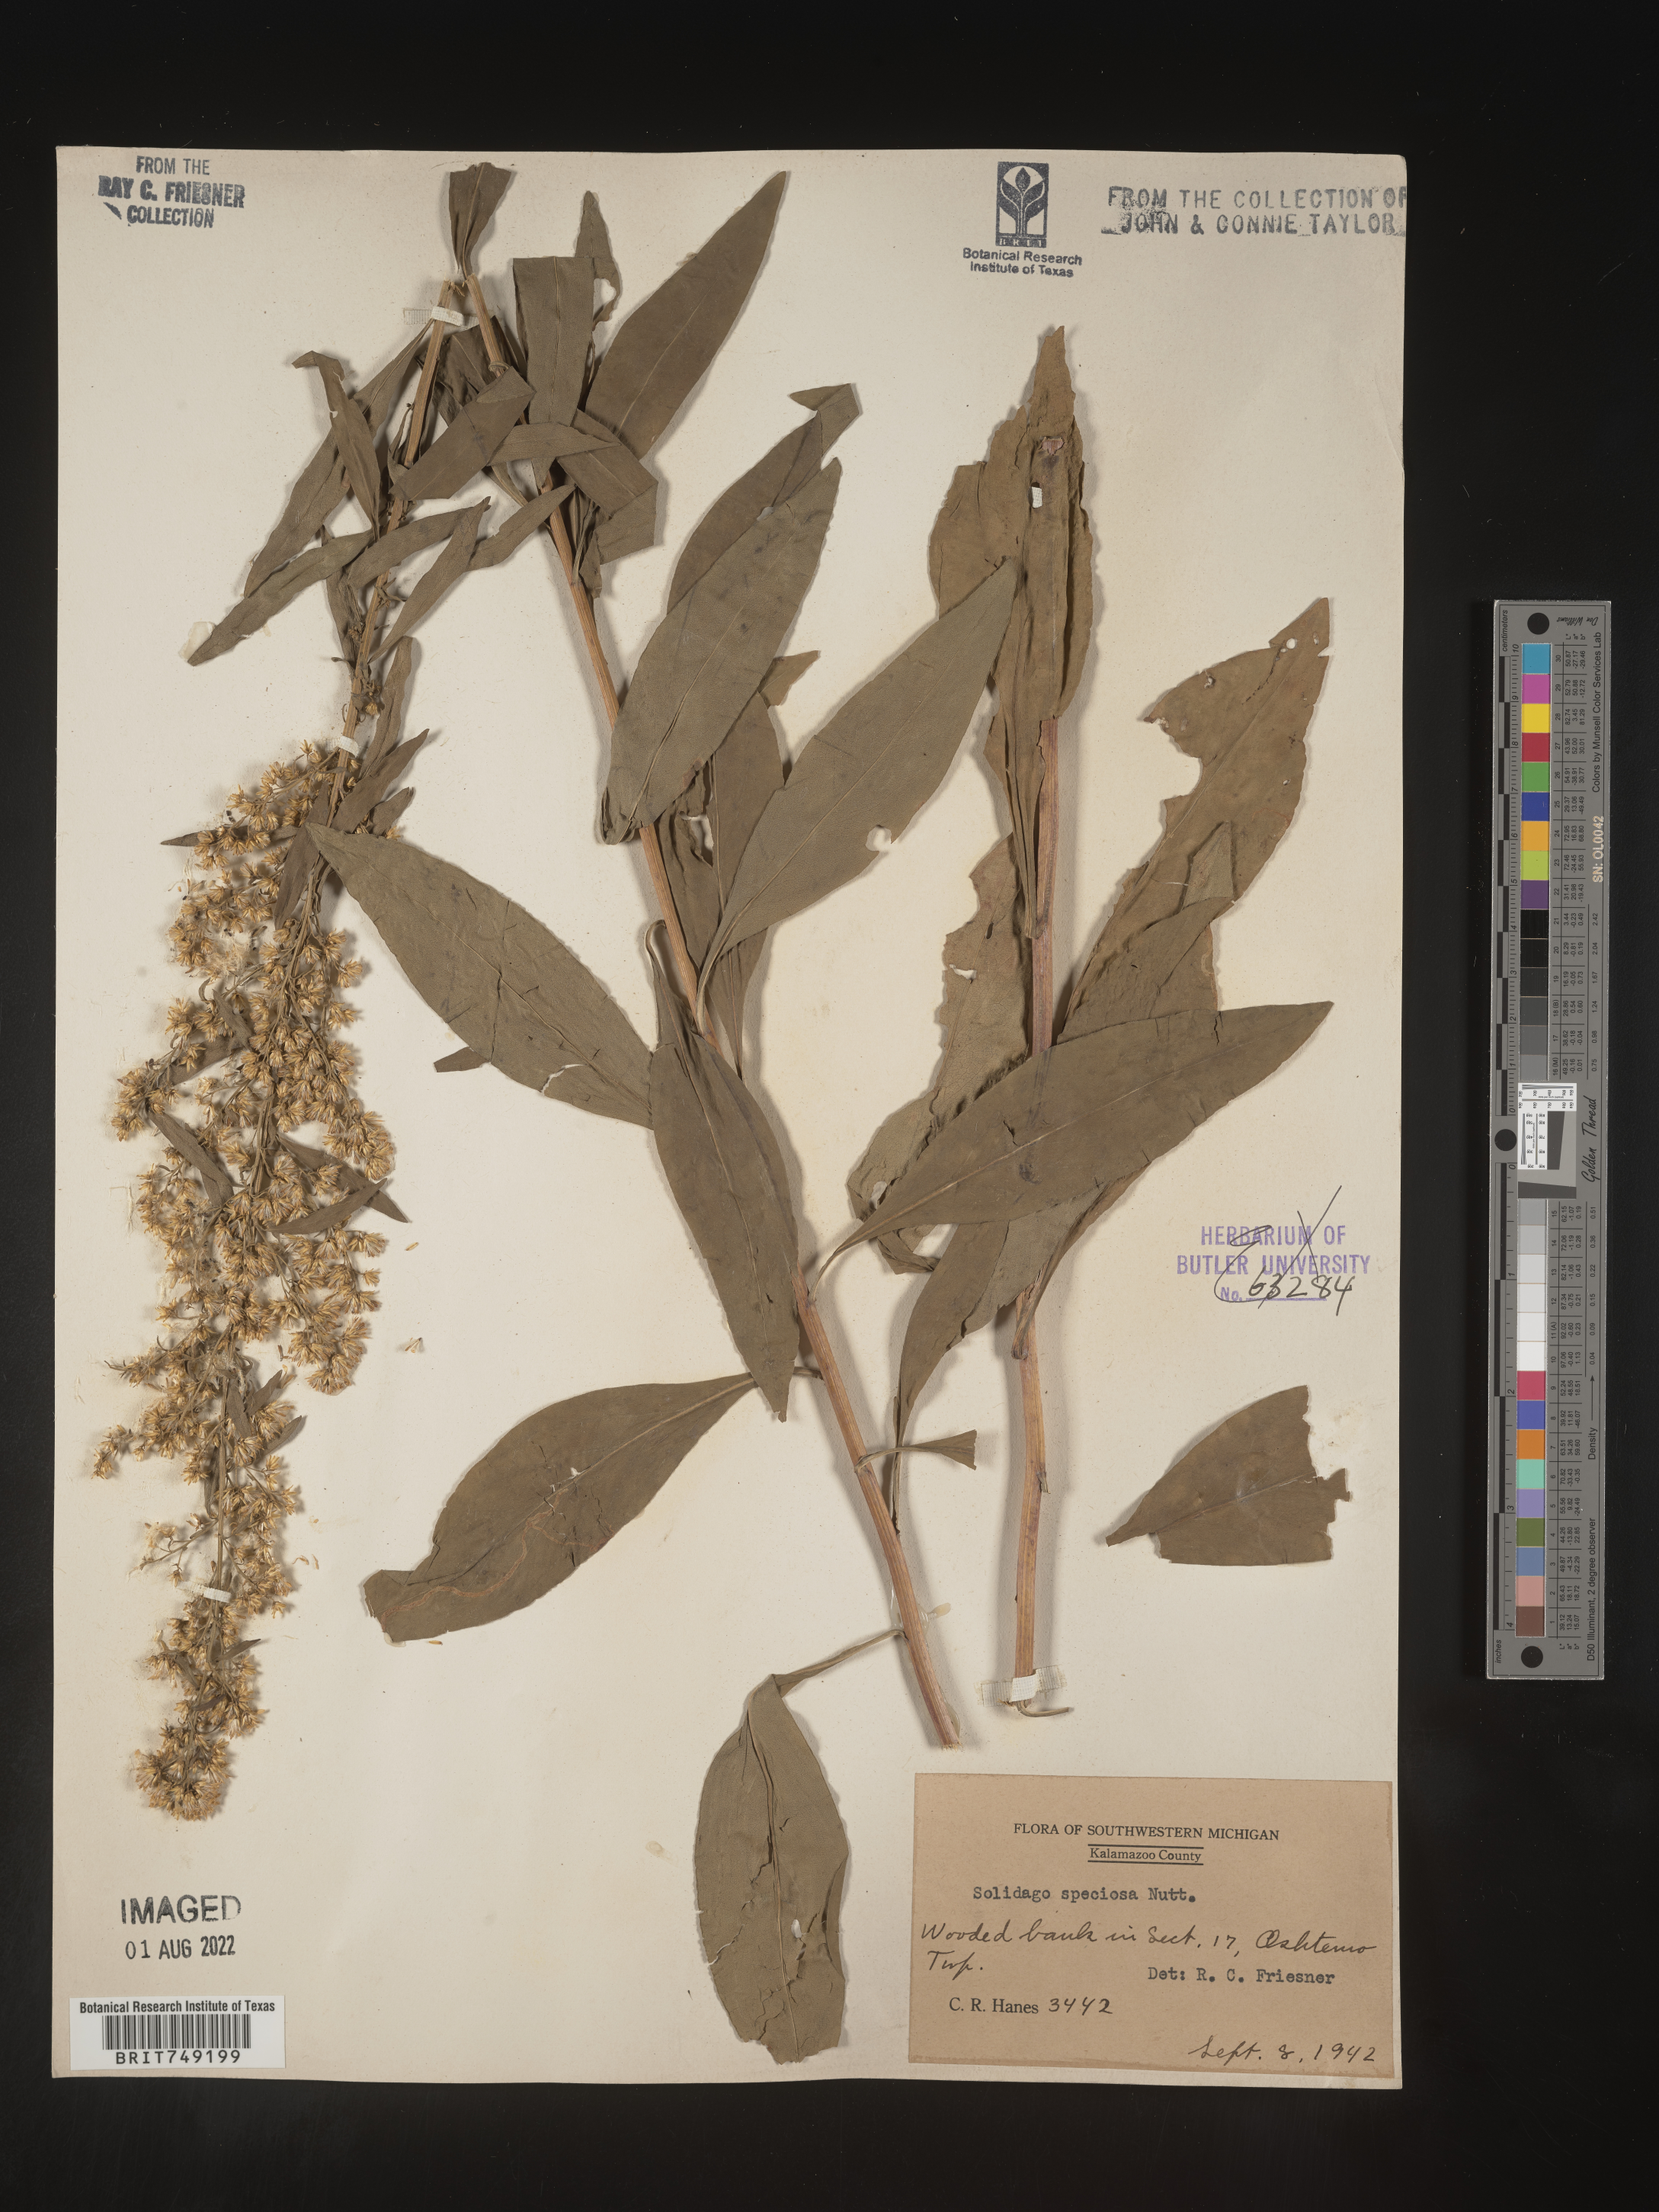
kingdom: Plantae
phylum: Tracheophyta
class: Magnoliopsida
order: Asterales
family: Asteraceae
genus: Solidago
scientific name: Solidago speciosa
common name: Showy goldenrod
